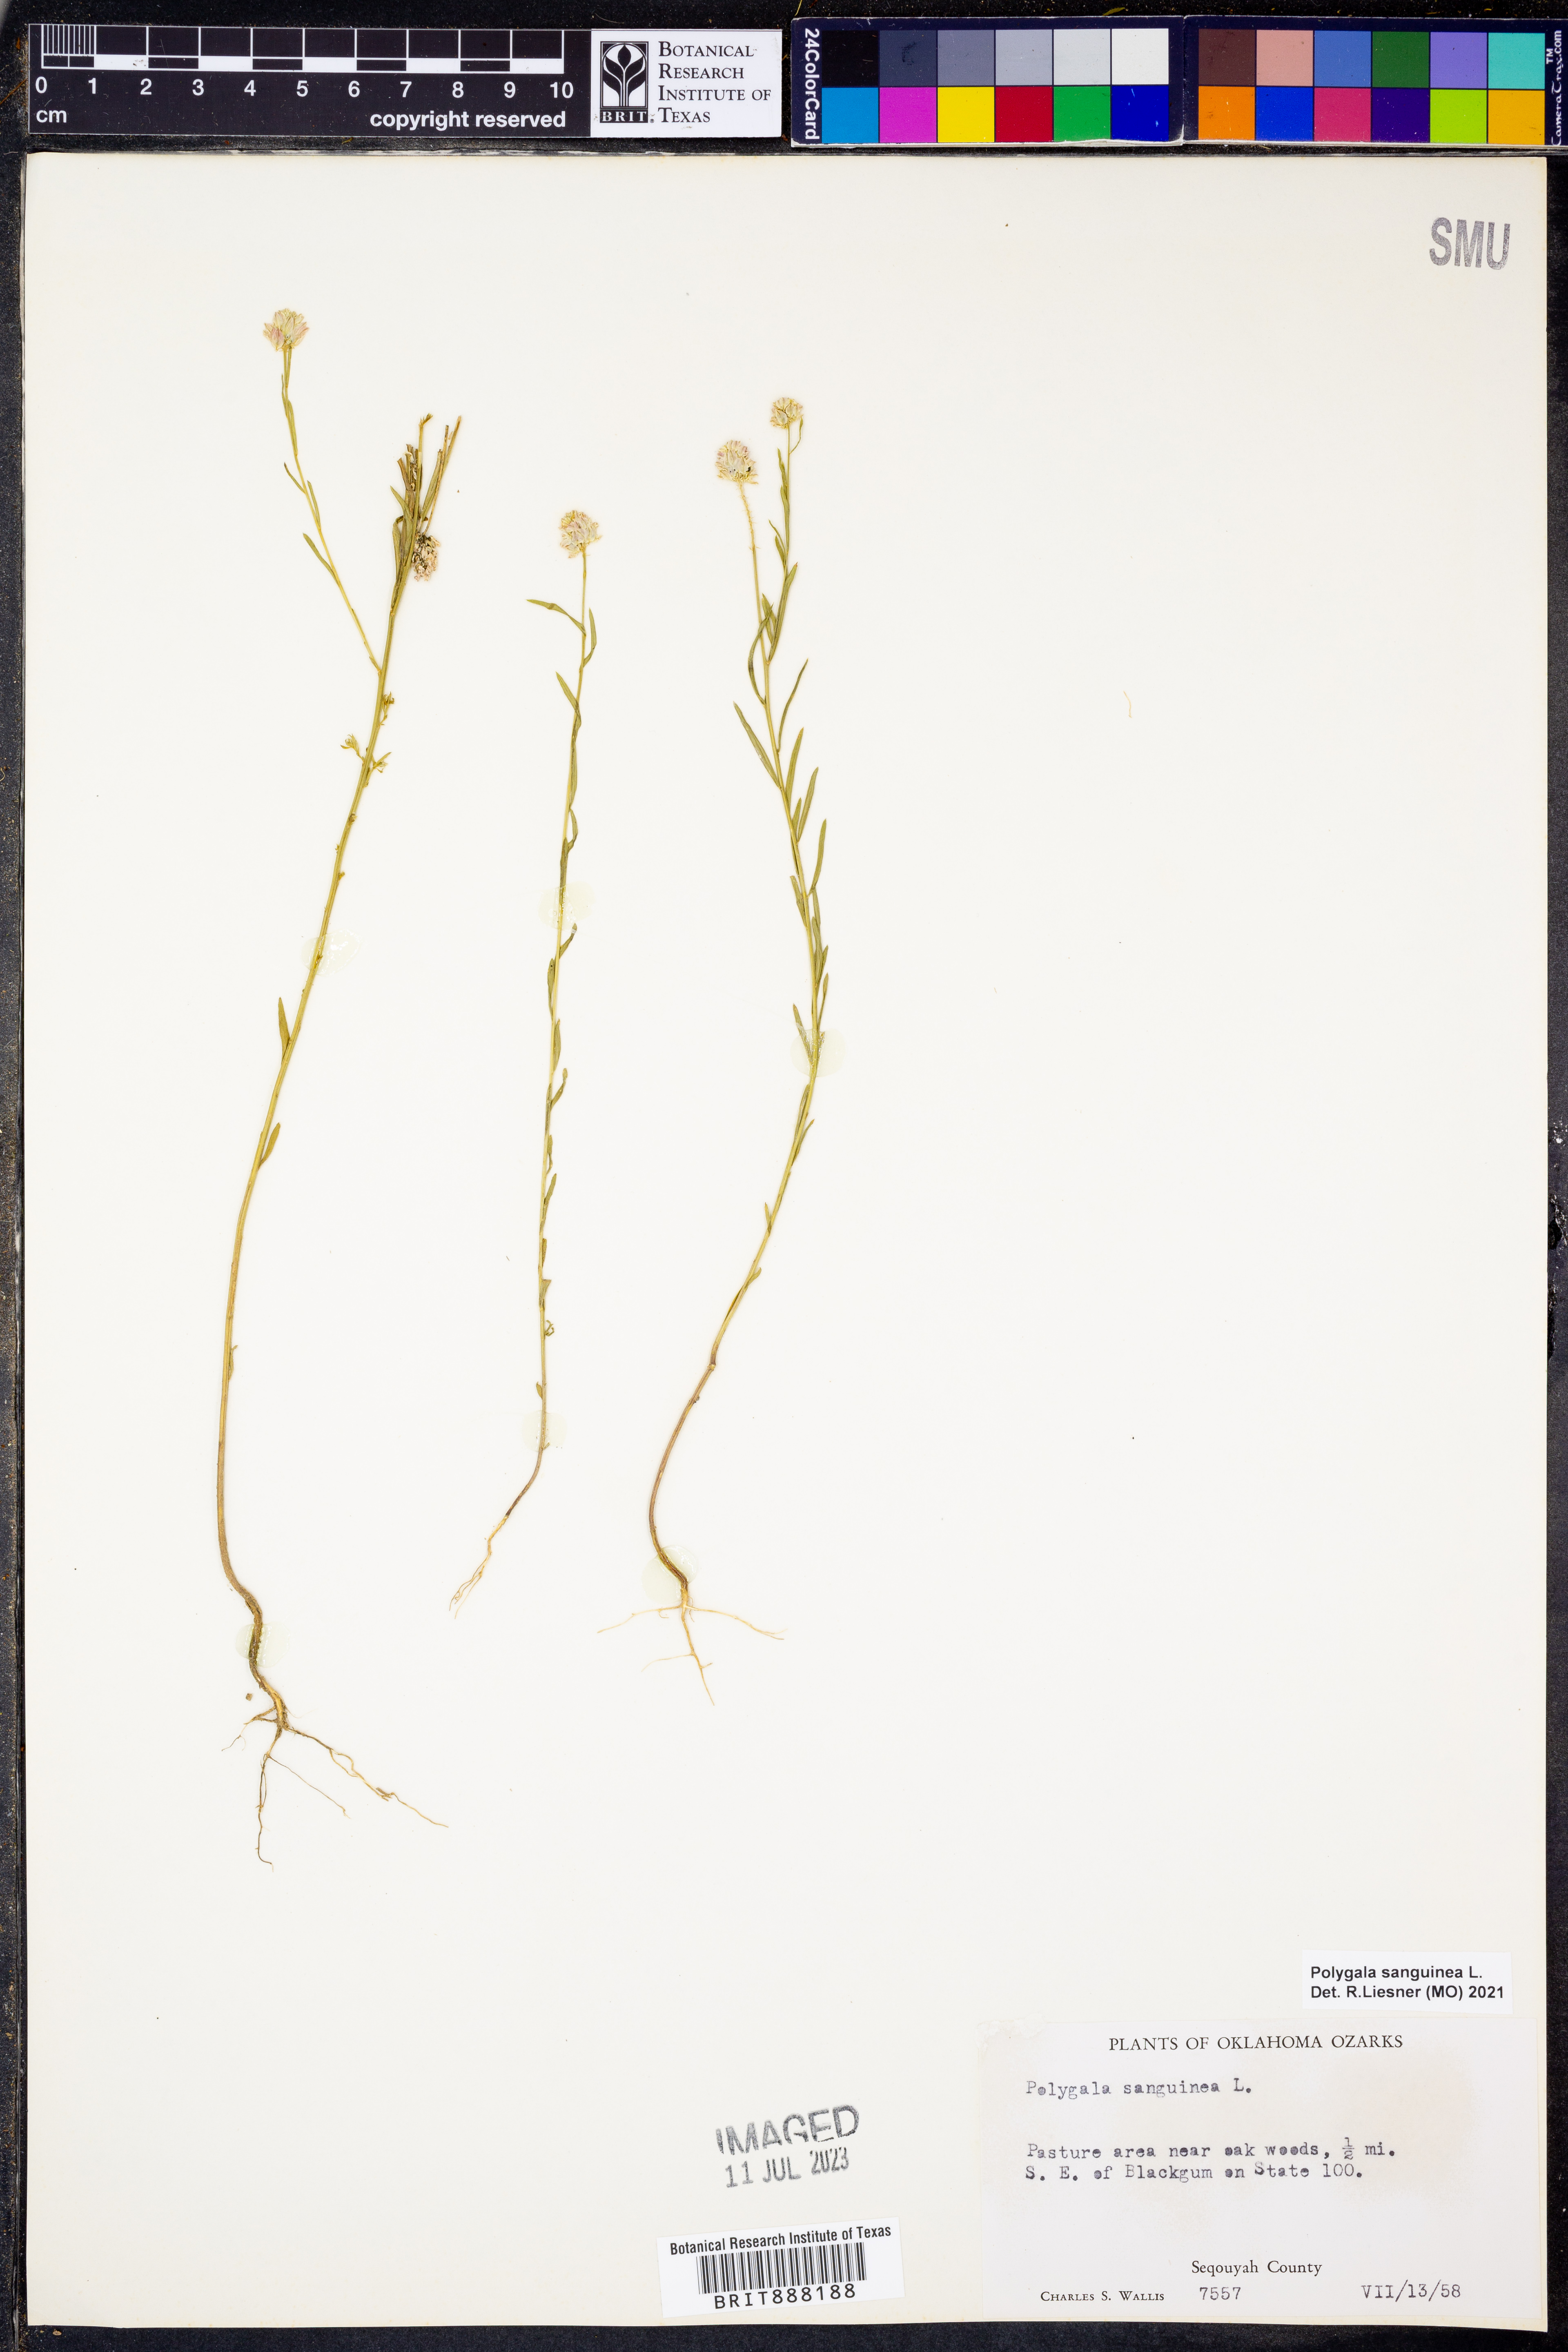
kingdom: Plantae
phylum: Tracheophyta
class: Magnoliopsida
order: Fabales
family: Polygalaceae
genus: Polygala
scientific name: Polygala sanguinea
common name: Blood milkwort
